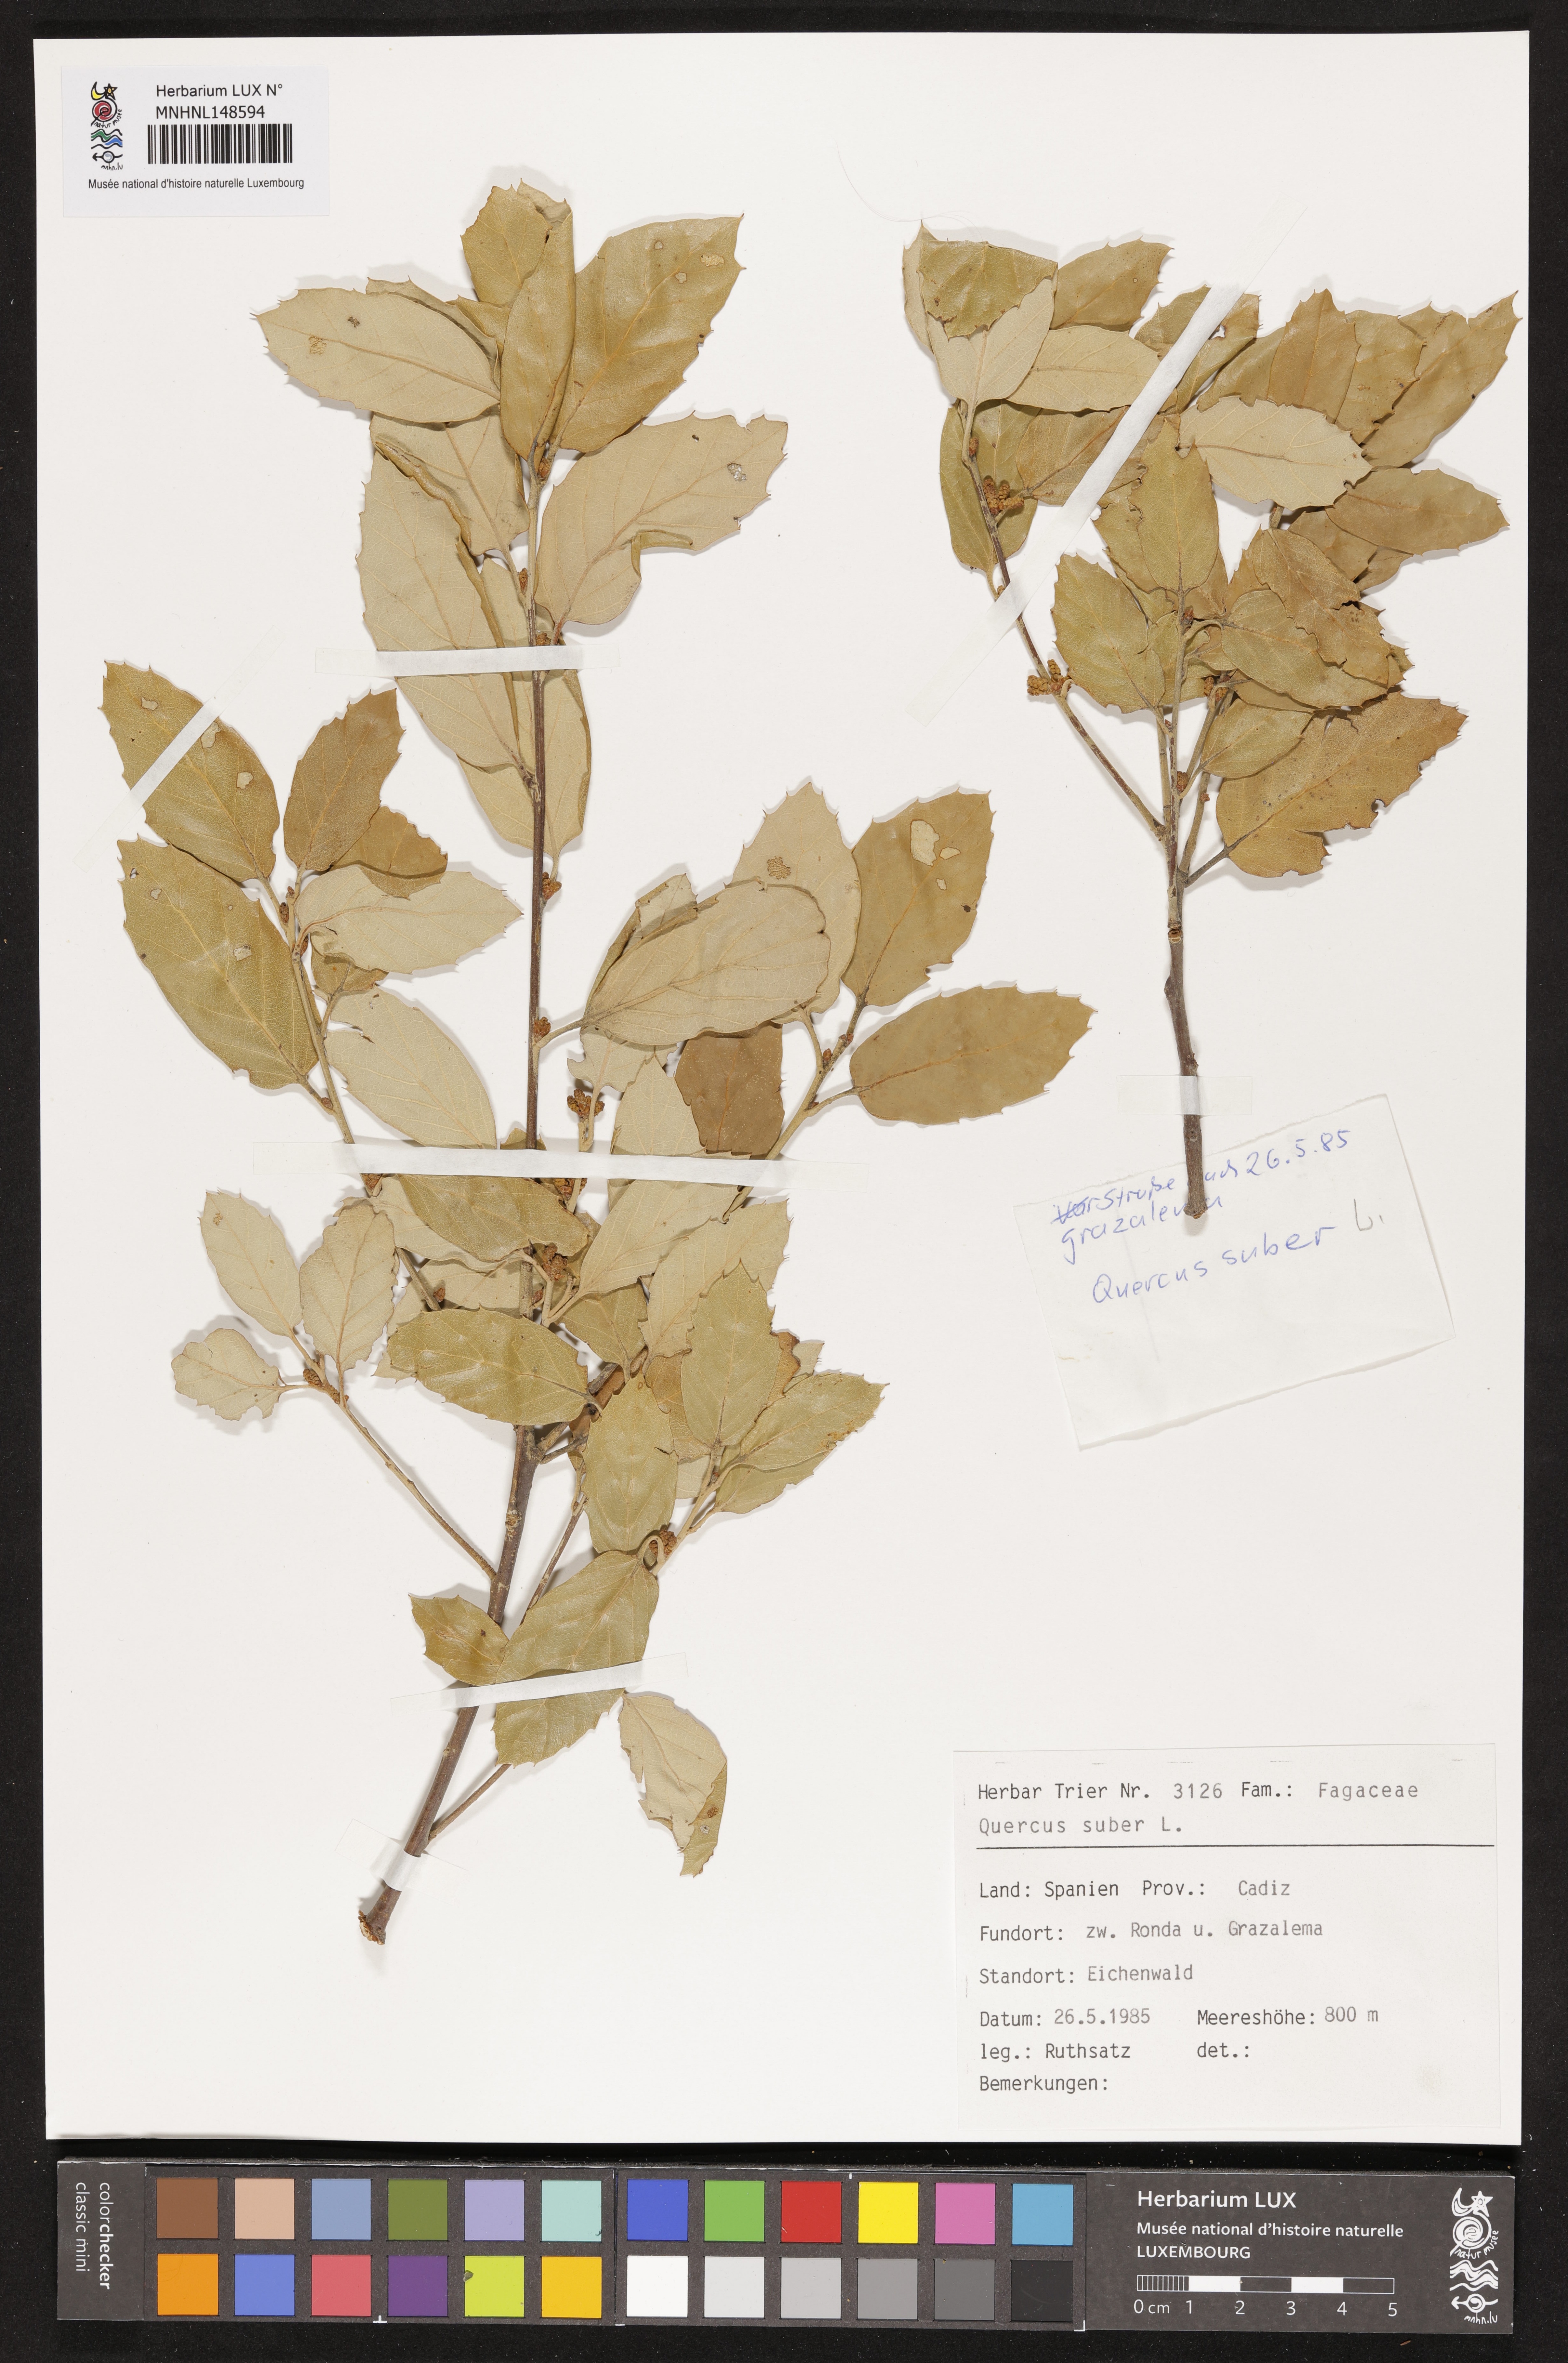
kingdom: Plantae
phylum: Tracheophyta
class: Magnoliopsida
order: Fagales
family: Fagaceae
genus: Quercus
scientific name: Quercus suber
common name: Cork oak
